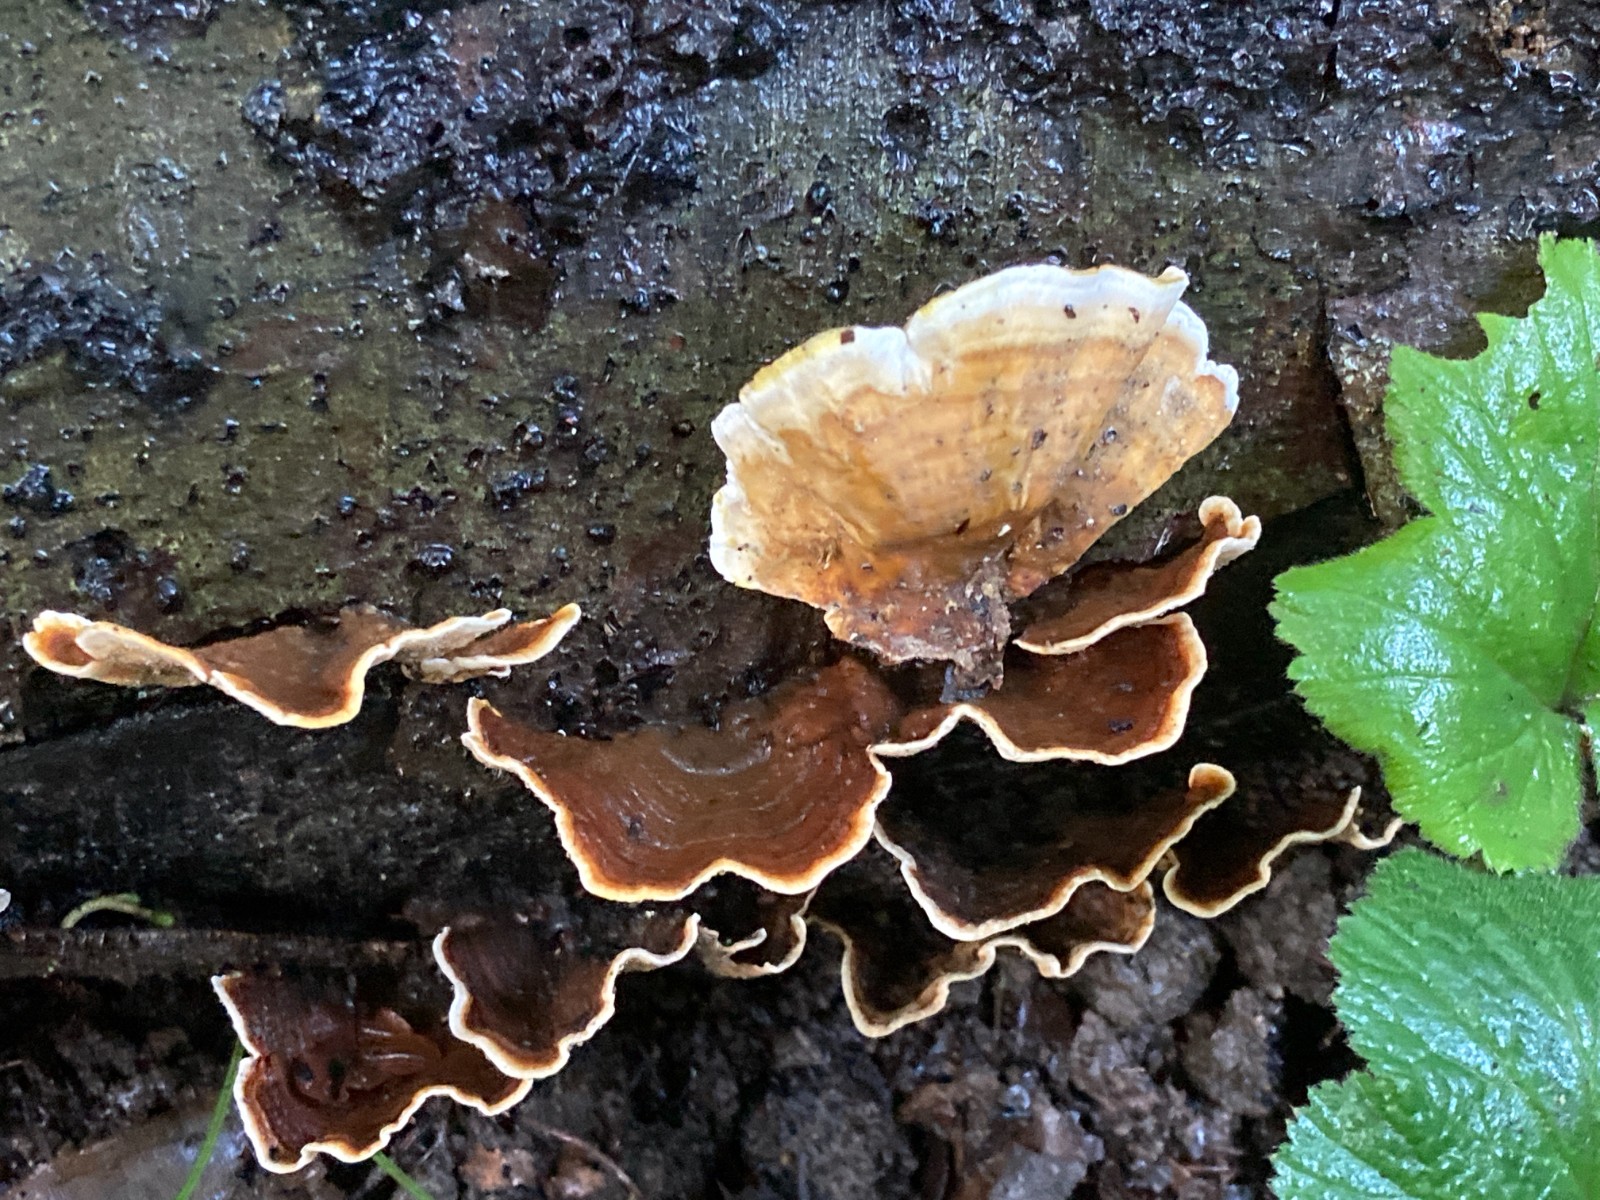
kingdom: Fungi
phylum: Basidiomycota
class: Agaricomycetes
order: Russulales
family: Stereaceae
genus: Stereum
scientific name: Stereum subtomentosum
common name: smuk lædersvamp
